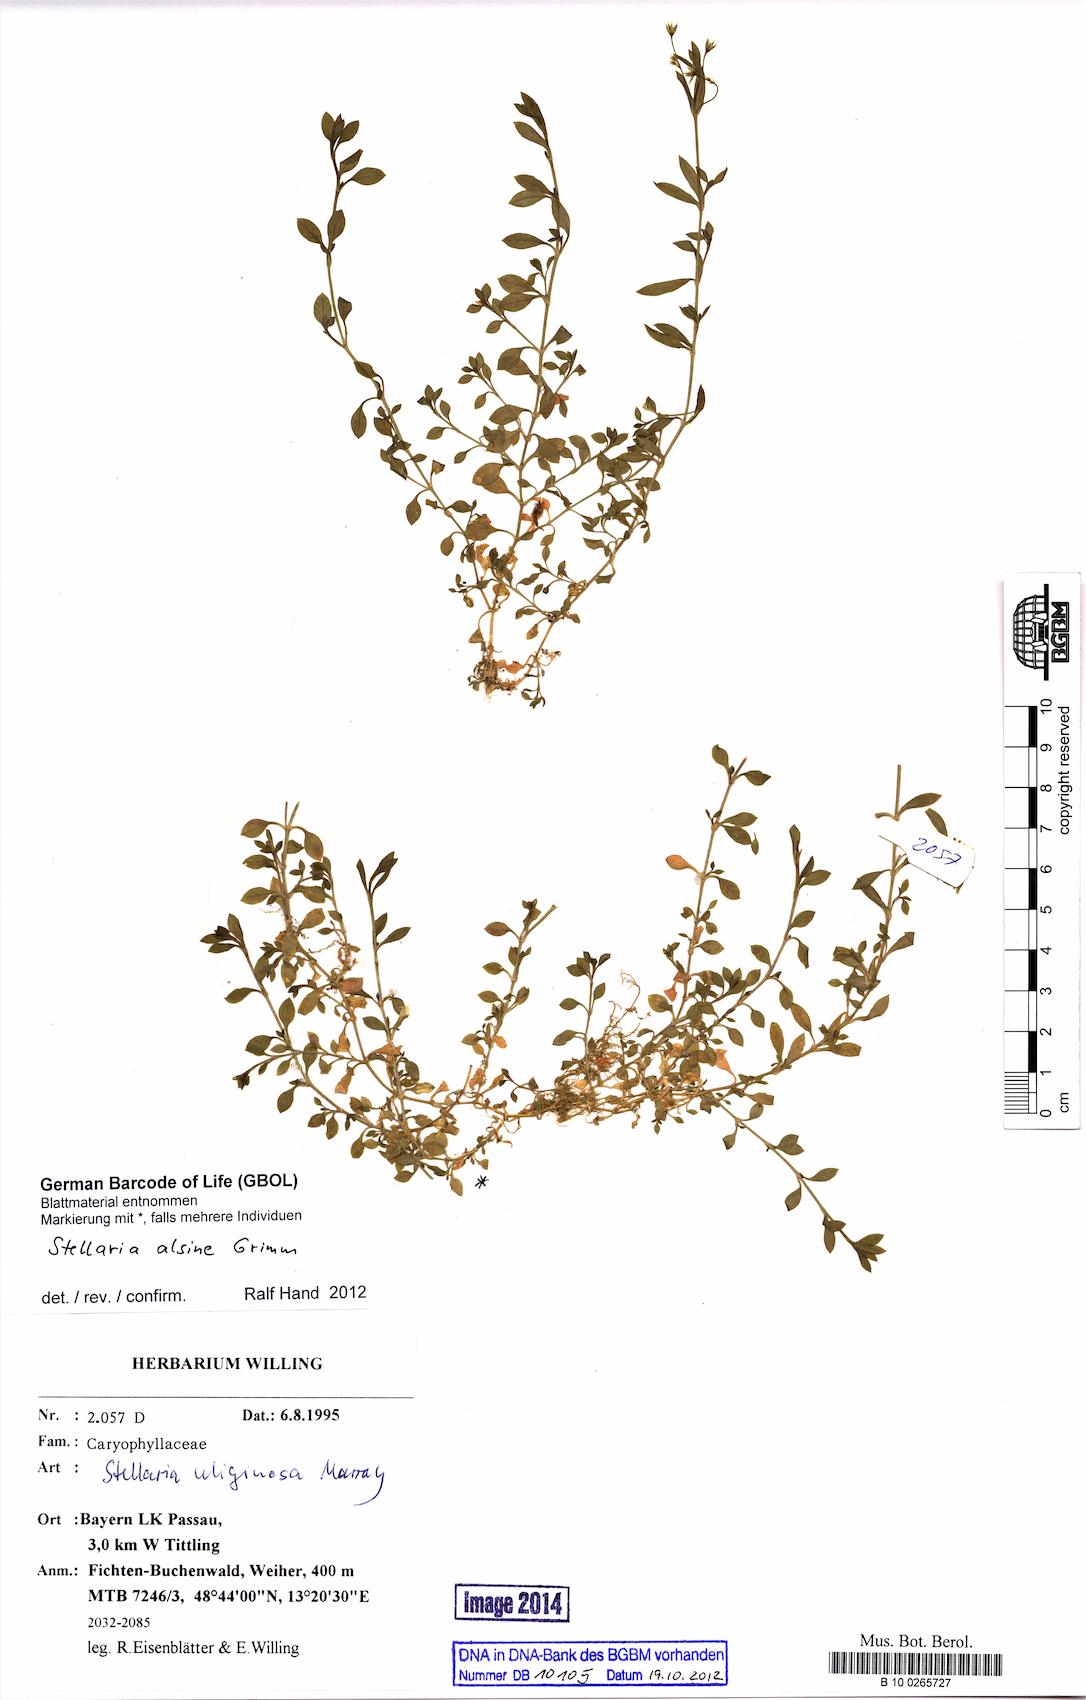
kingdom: Plantae
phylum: Tracheophyta
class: Magnoliopsida
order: Caryophyllales
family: Caryophyllaceae
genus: Stellaria
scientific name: Stellaria alsine
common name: Bog stitchwort
